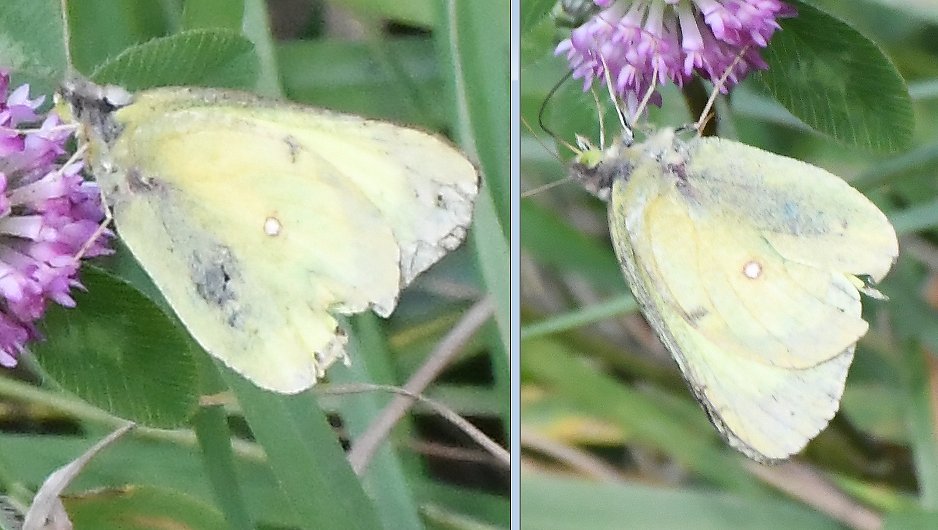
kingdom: Animalia
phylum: Arthropoda
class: Insecta
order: Lepidoptera
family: Pieridae
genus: Colias
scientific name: Colias philodice
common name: Clouded Sulphur
